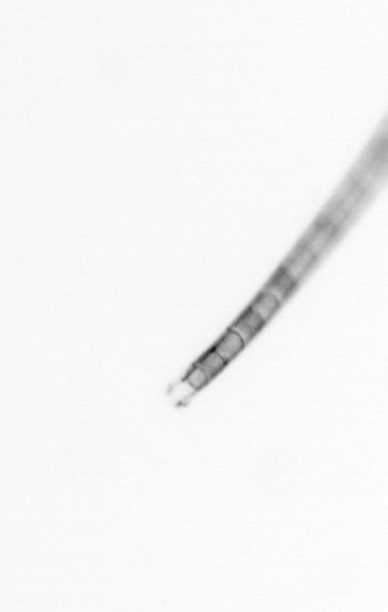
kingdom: Chromista
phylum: Ochrophyta
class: Bacillariophyceae
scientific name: Bacillariophyceae
